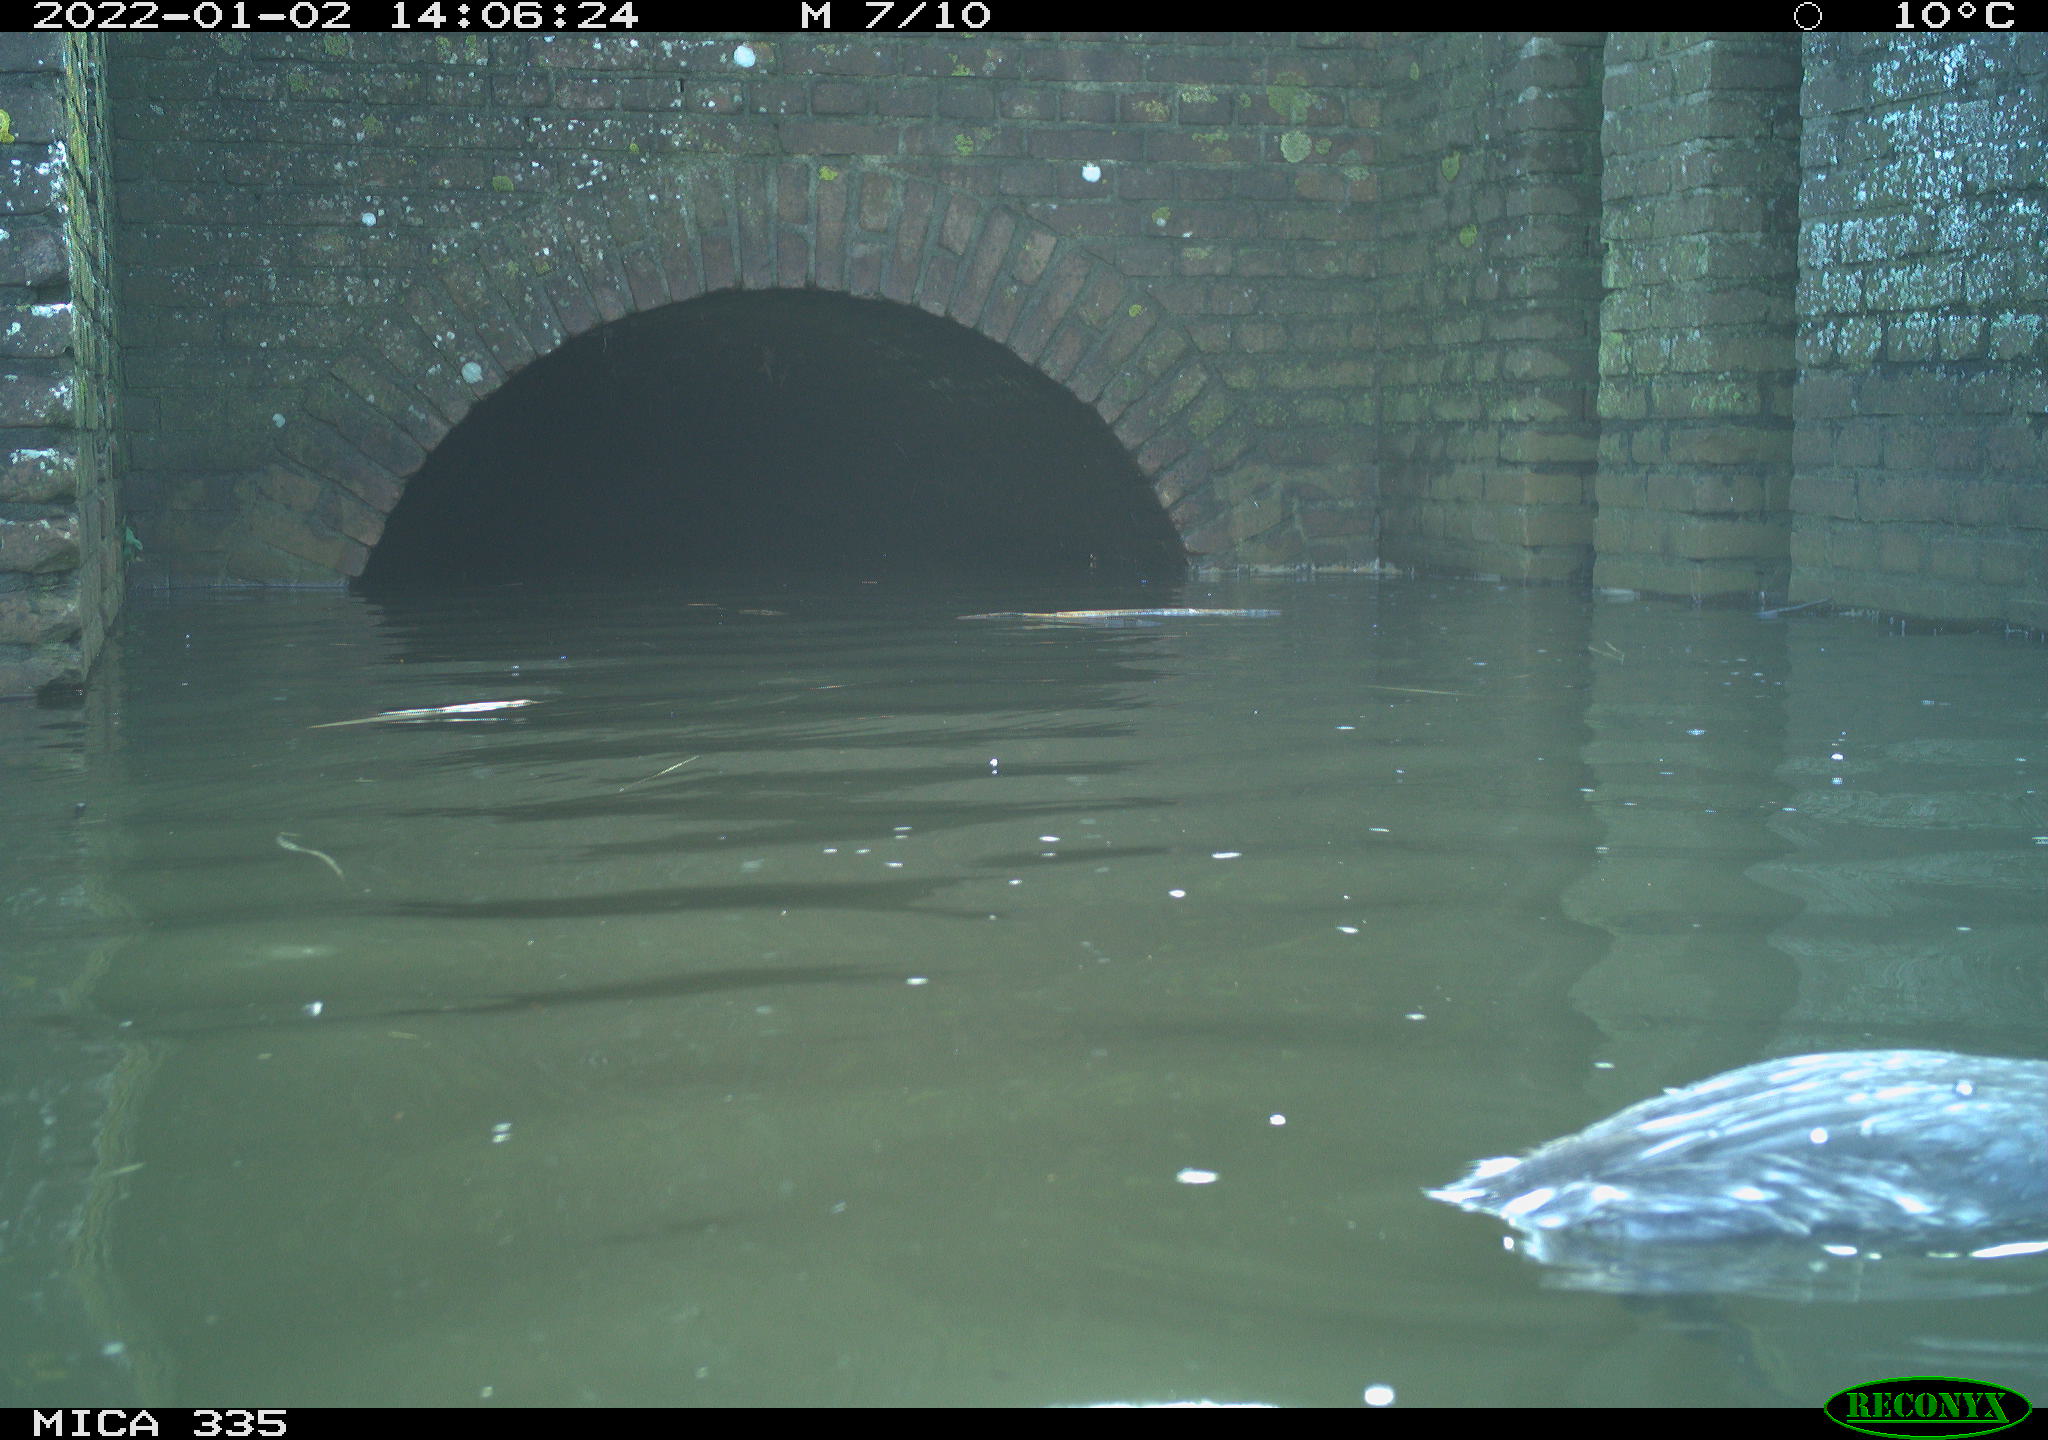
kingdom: Animalia
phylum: Chordata
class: Aves
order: Podicipediformes
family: Podicipedidae
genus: Podiceps
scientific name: Podiceps cristatus
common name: Great crested grebe
